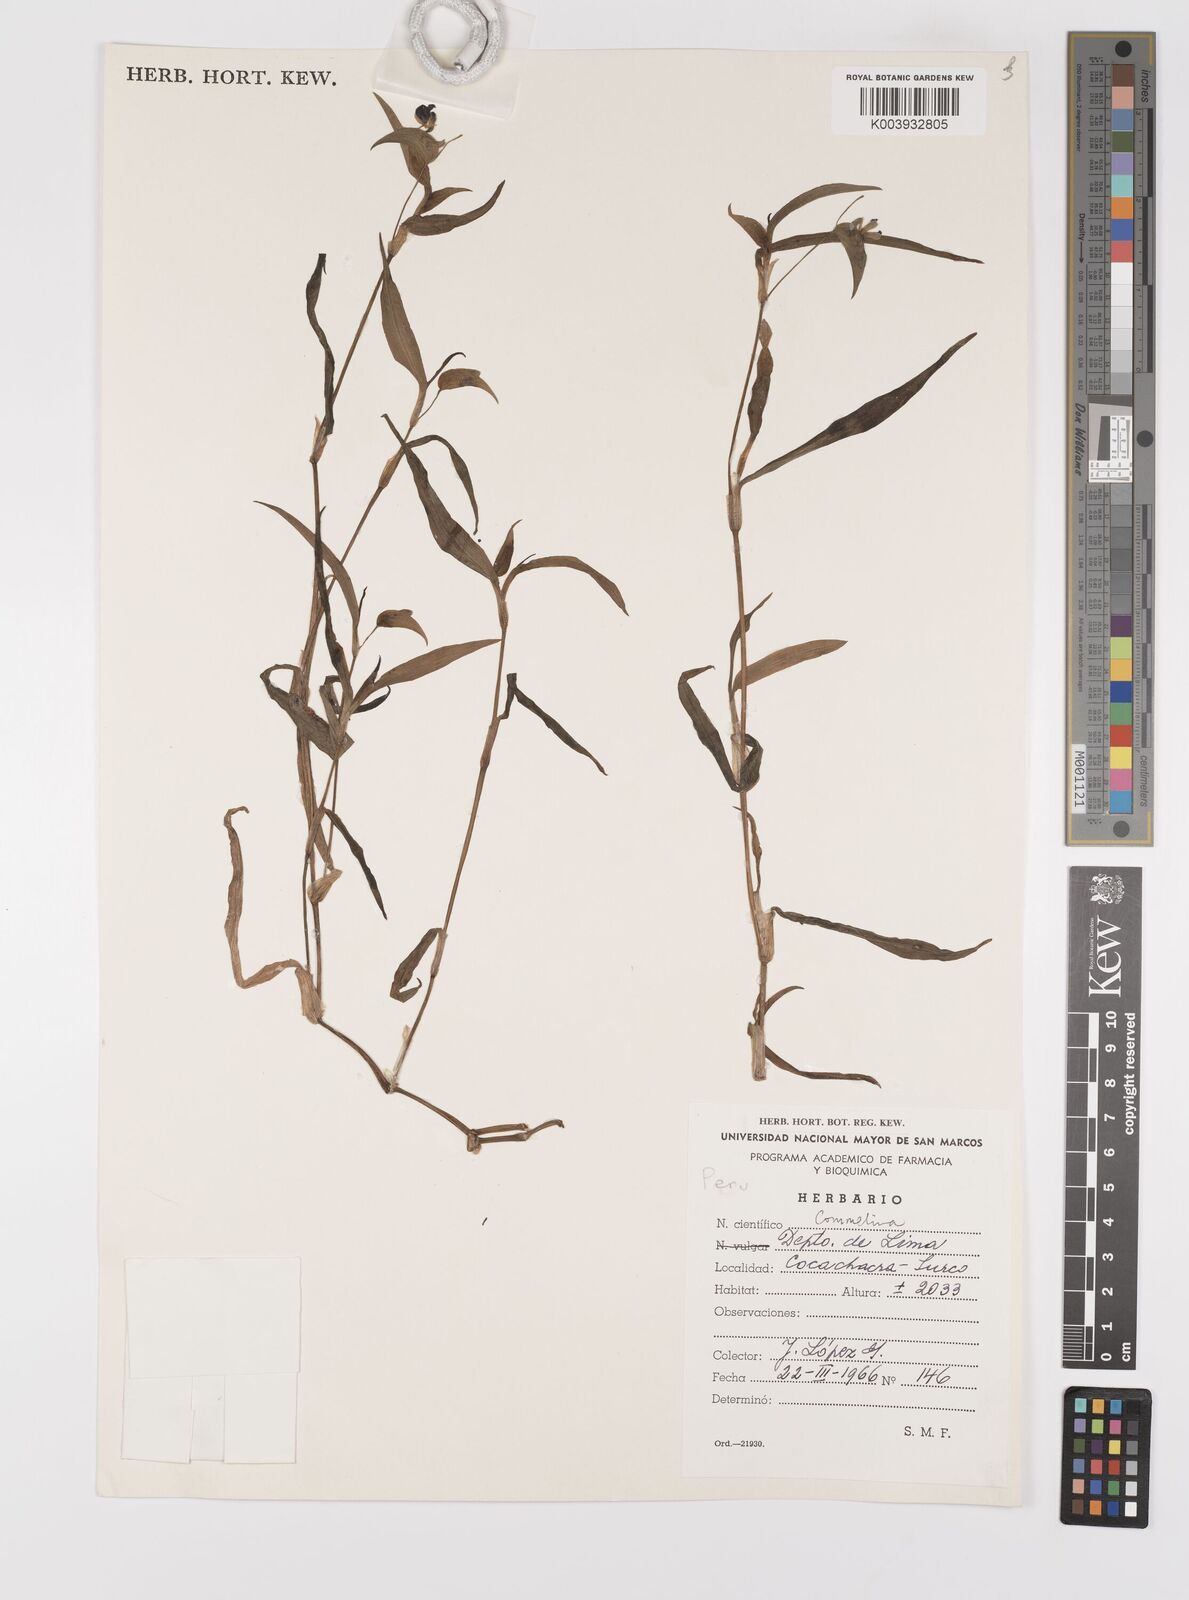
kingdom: Plantae
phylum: Tracheophyta
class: Liliopsida
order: Commelinales
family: Commelinaceae
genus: Commelina
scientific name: Commelina
